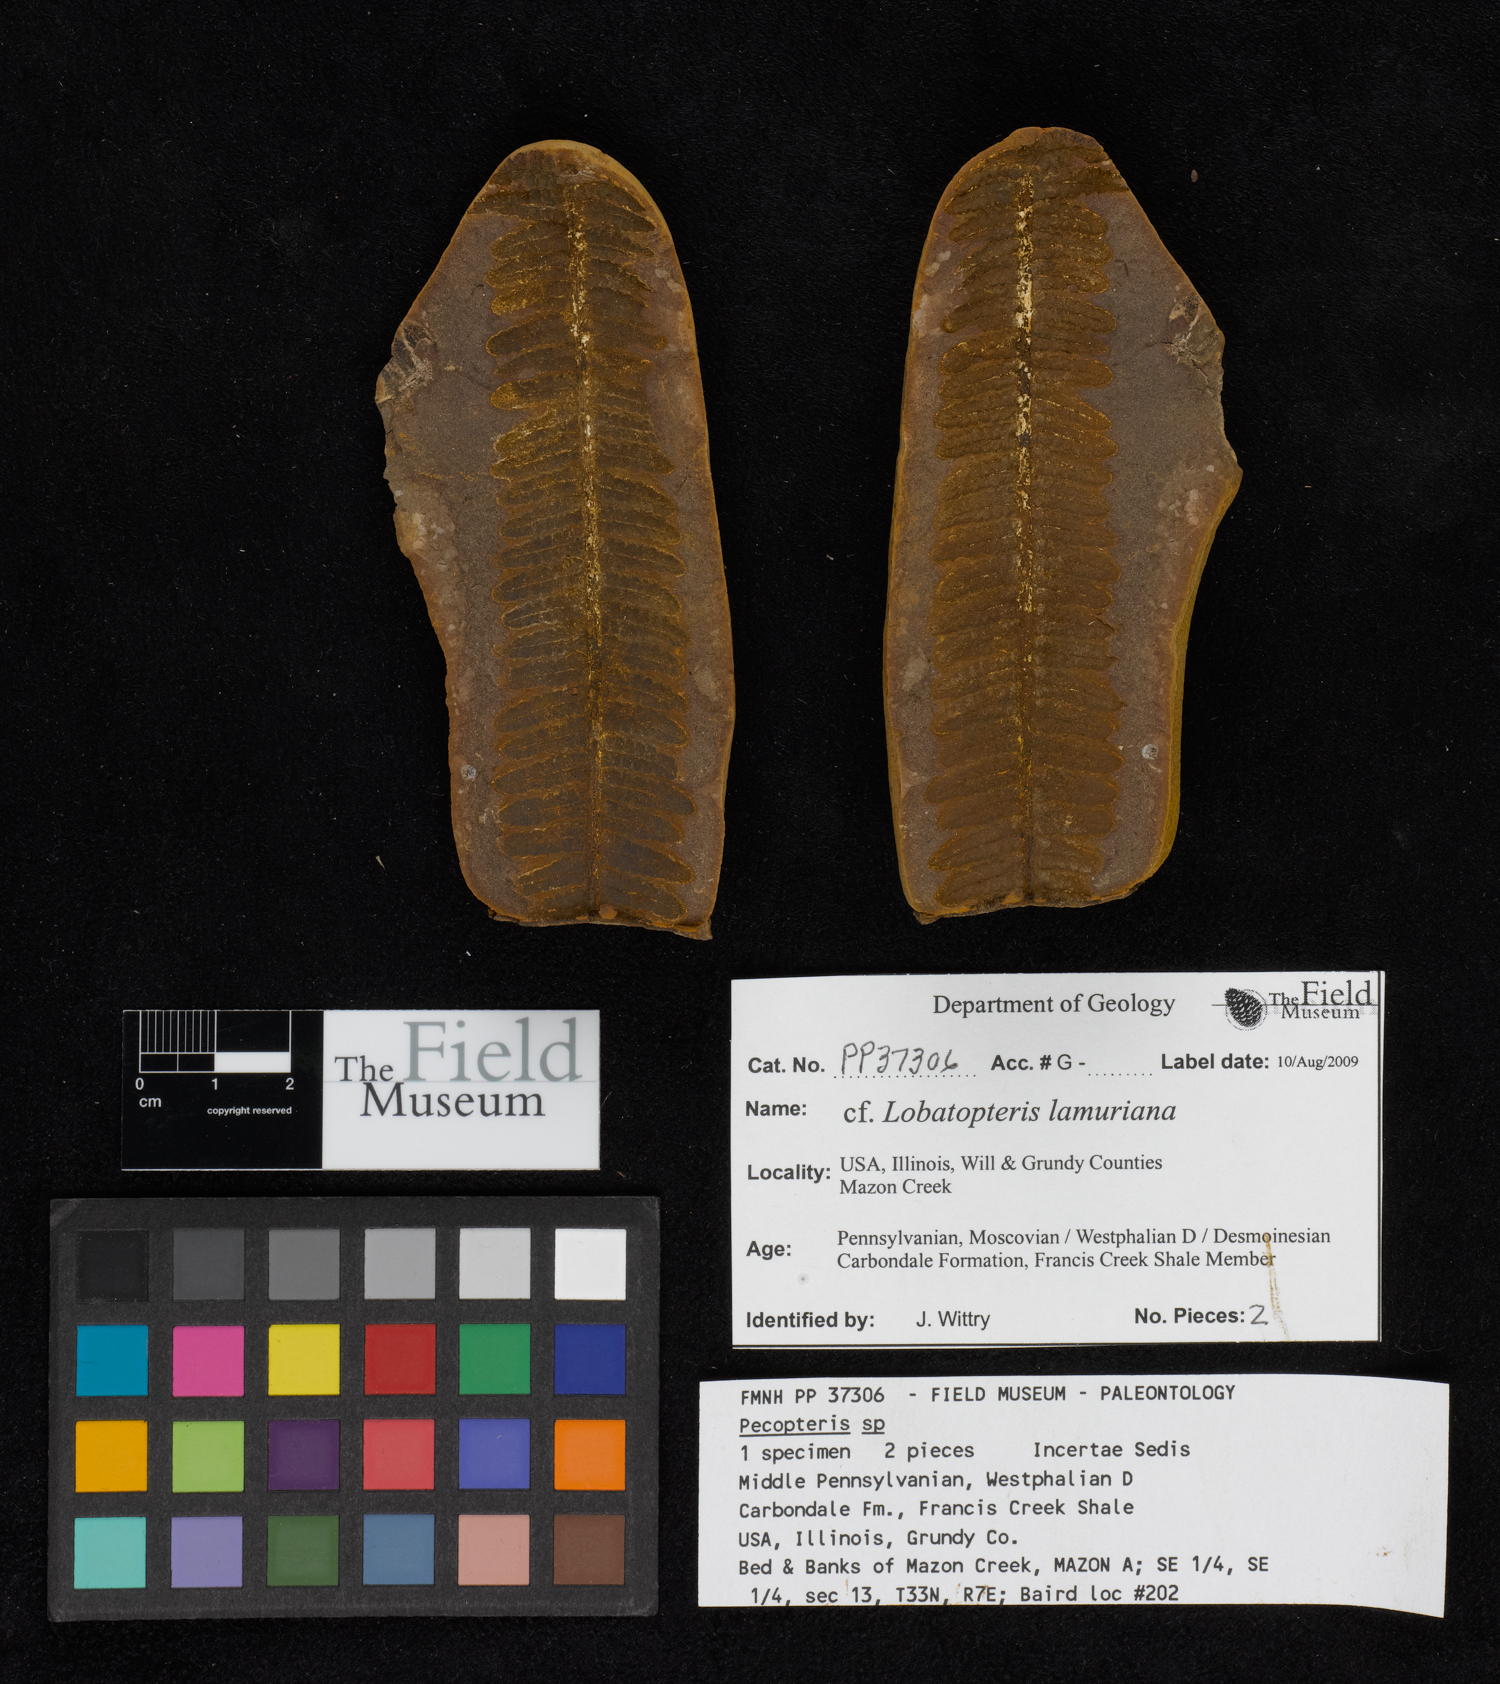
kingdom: Plantae
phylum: Tracheophyta
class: Polypodiopsida
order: Marattiales
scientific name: Marattiales
